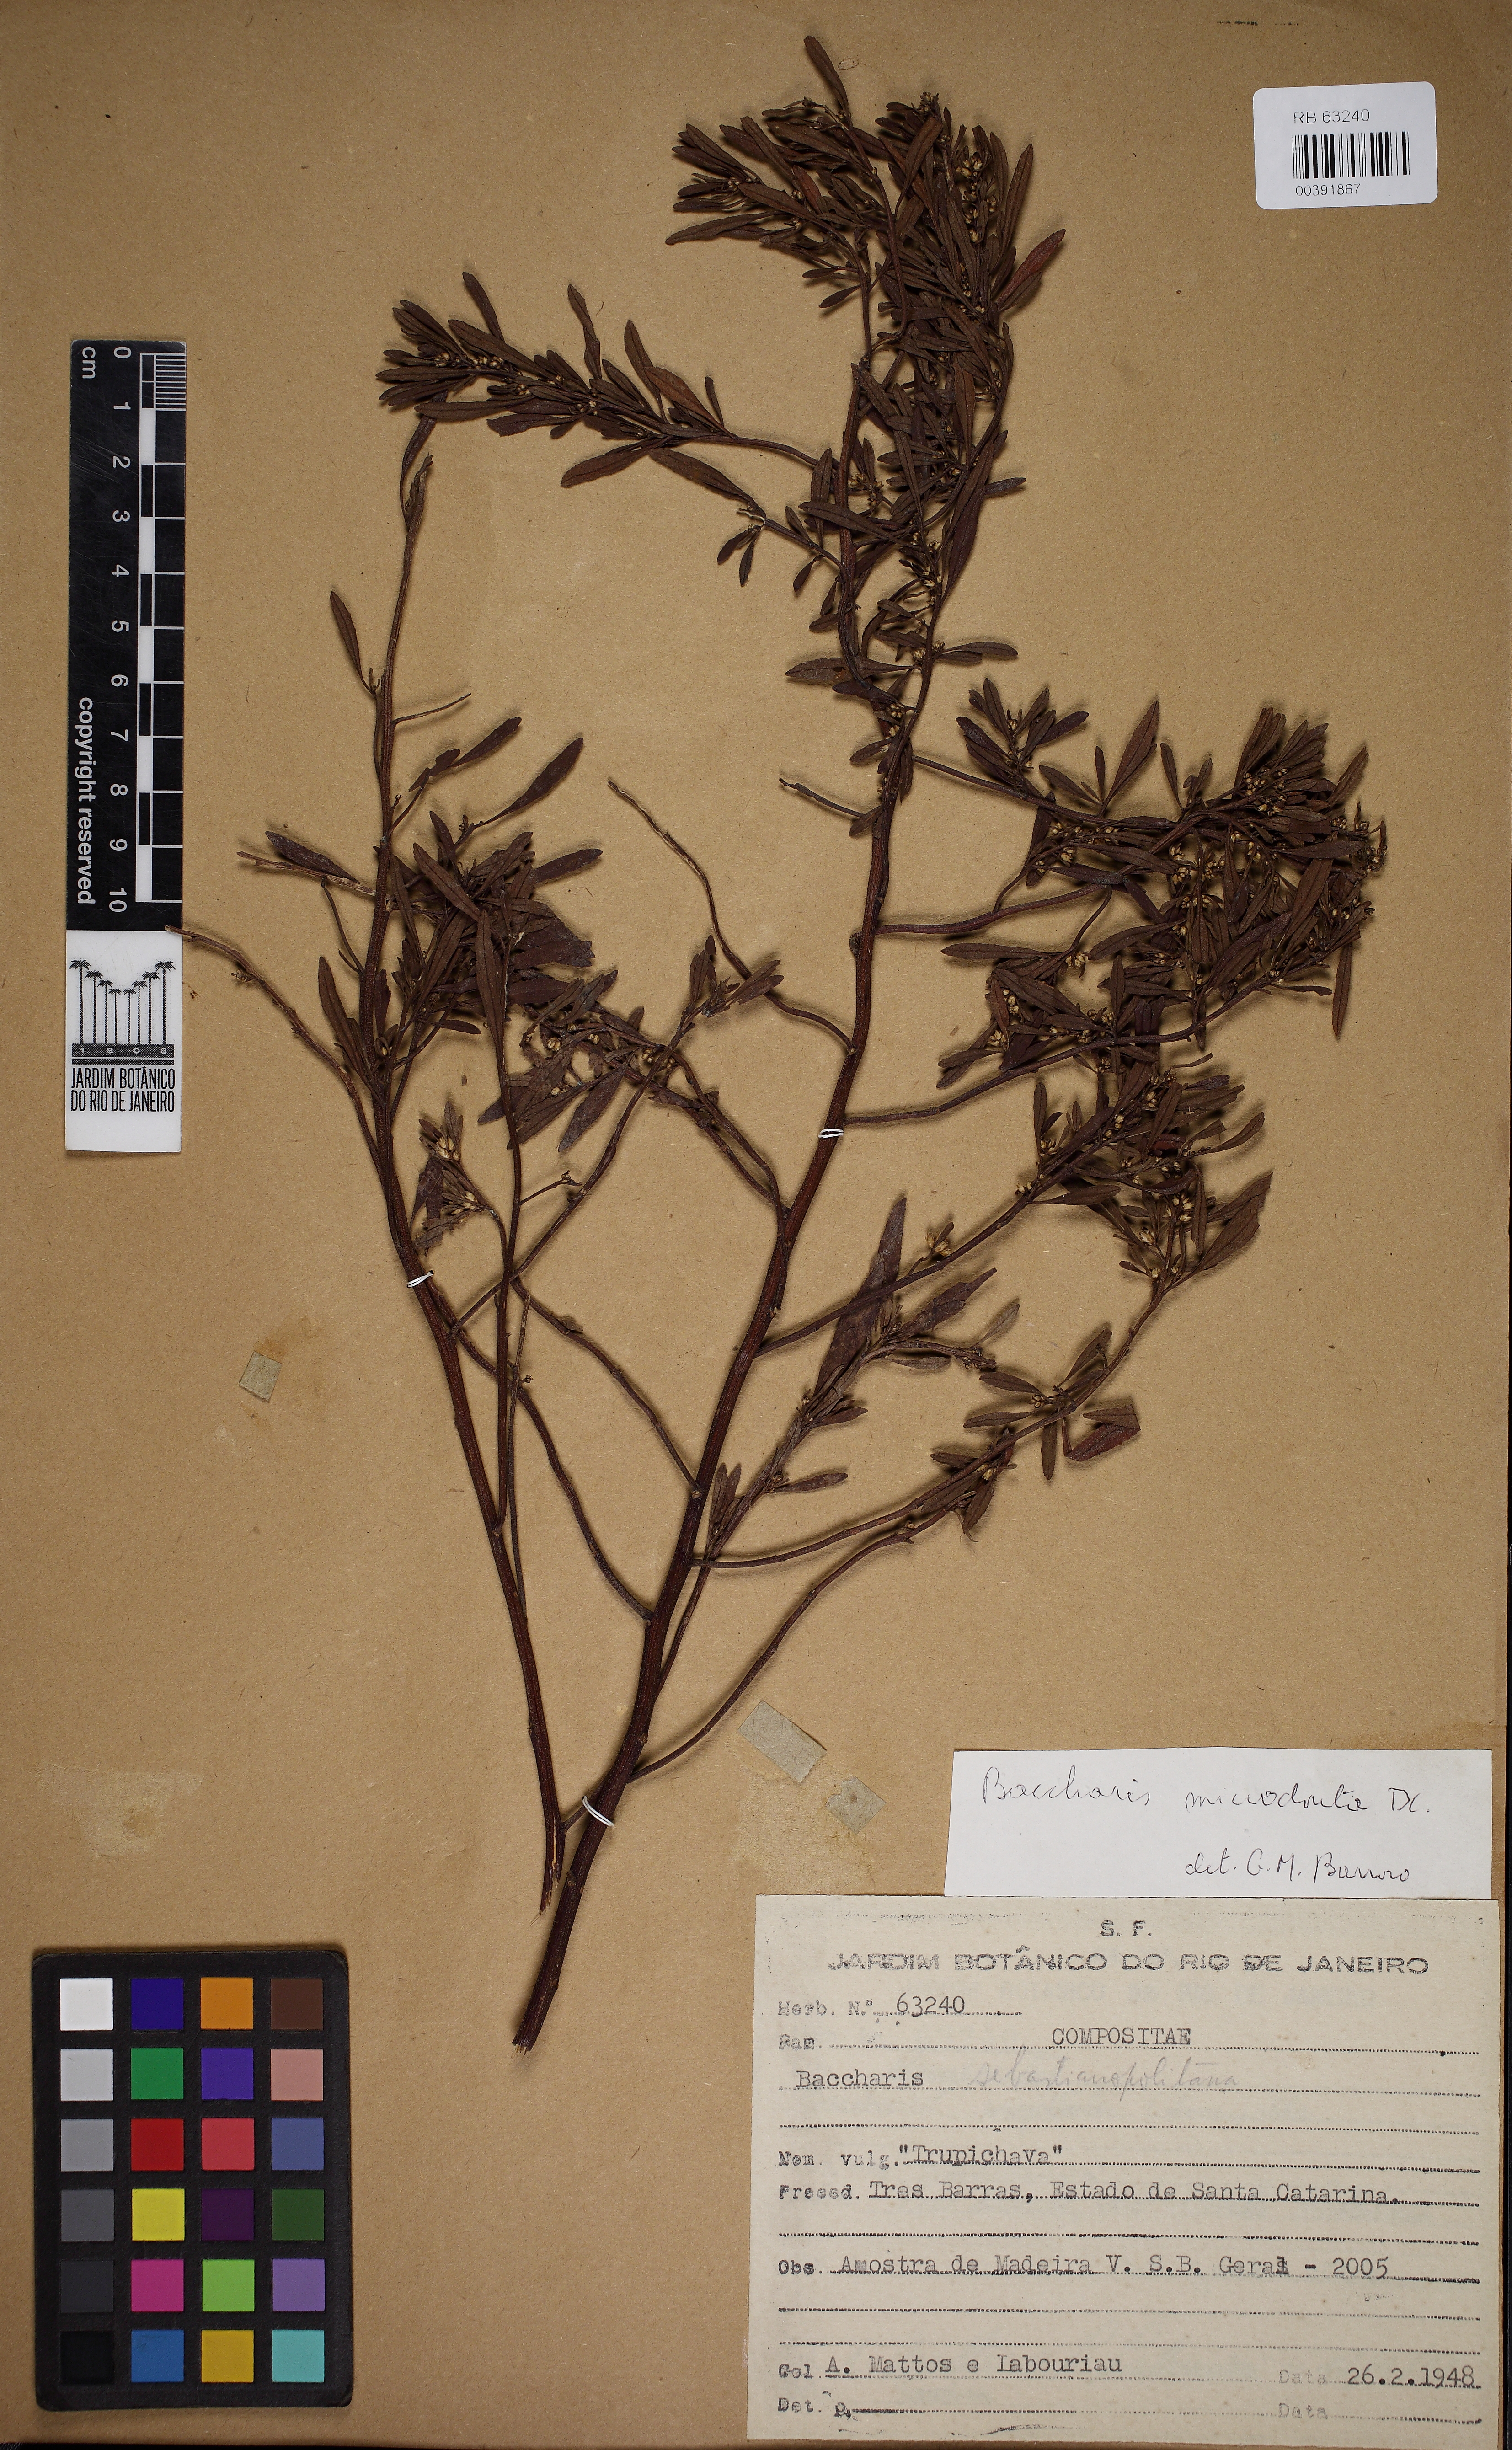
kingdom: Plantae
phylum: Tracheophyta
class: Magnoliopsida
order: Asterales
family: Asteraceae
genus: Baccharis
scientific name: Baccharis microdonta
